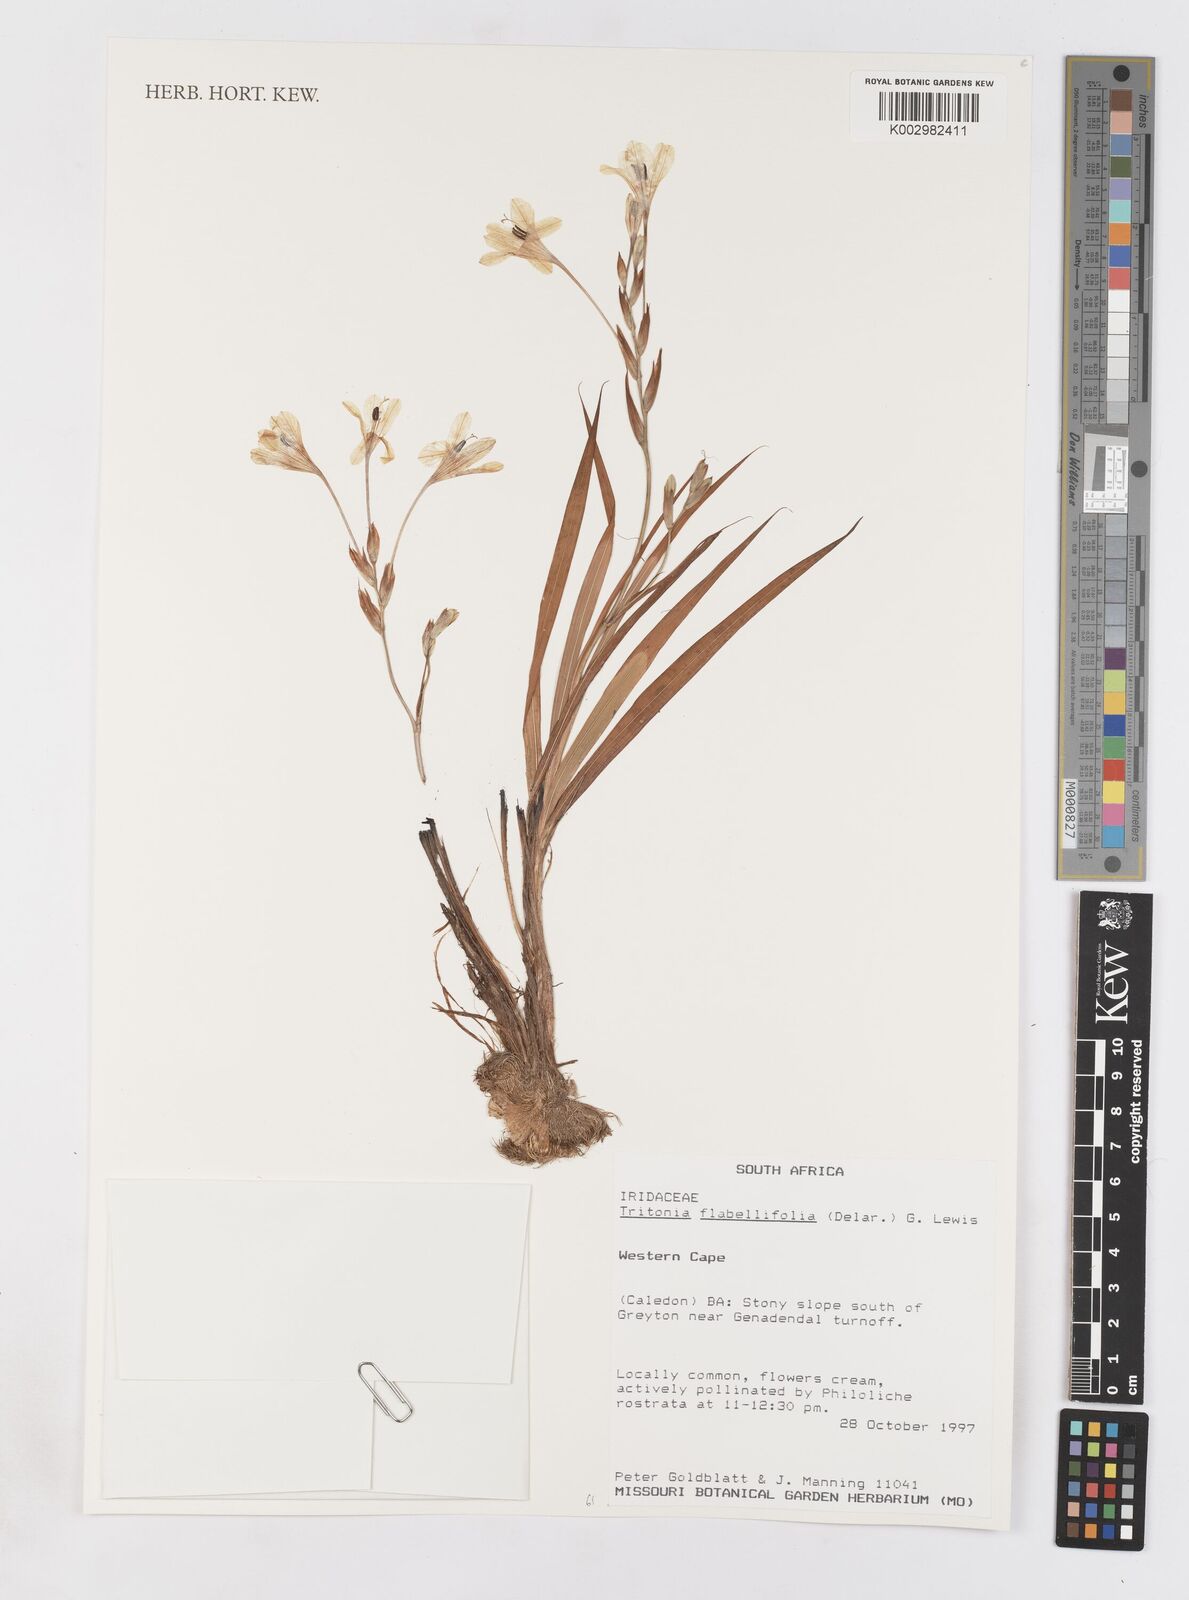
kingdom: Plantae
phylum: Tracheophyta
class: Liliopsida
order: Asparagales
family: Iridaceae
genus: Tritonia
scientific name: Tritonia flabellifolia
